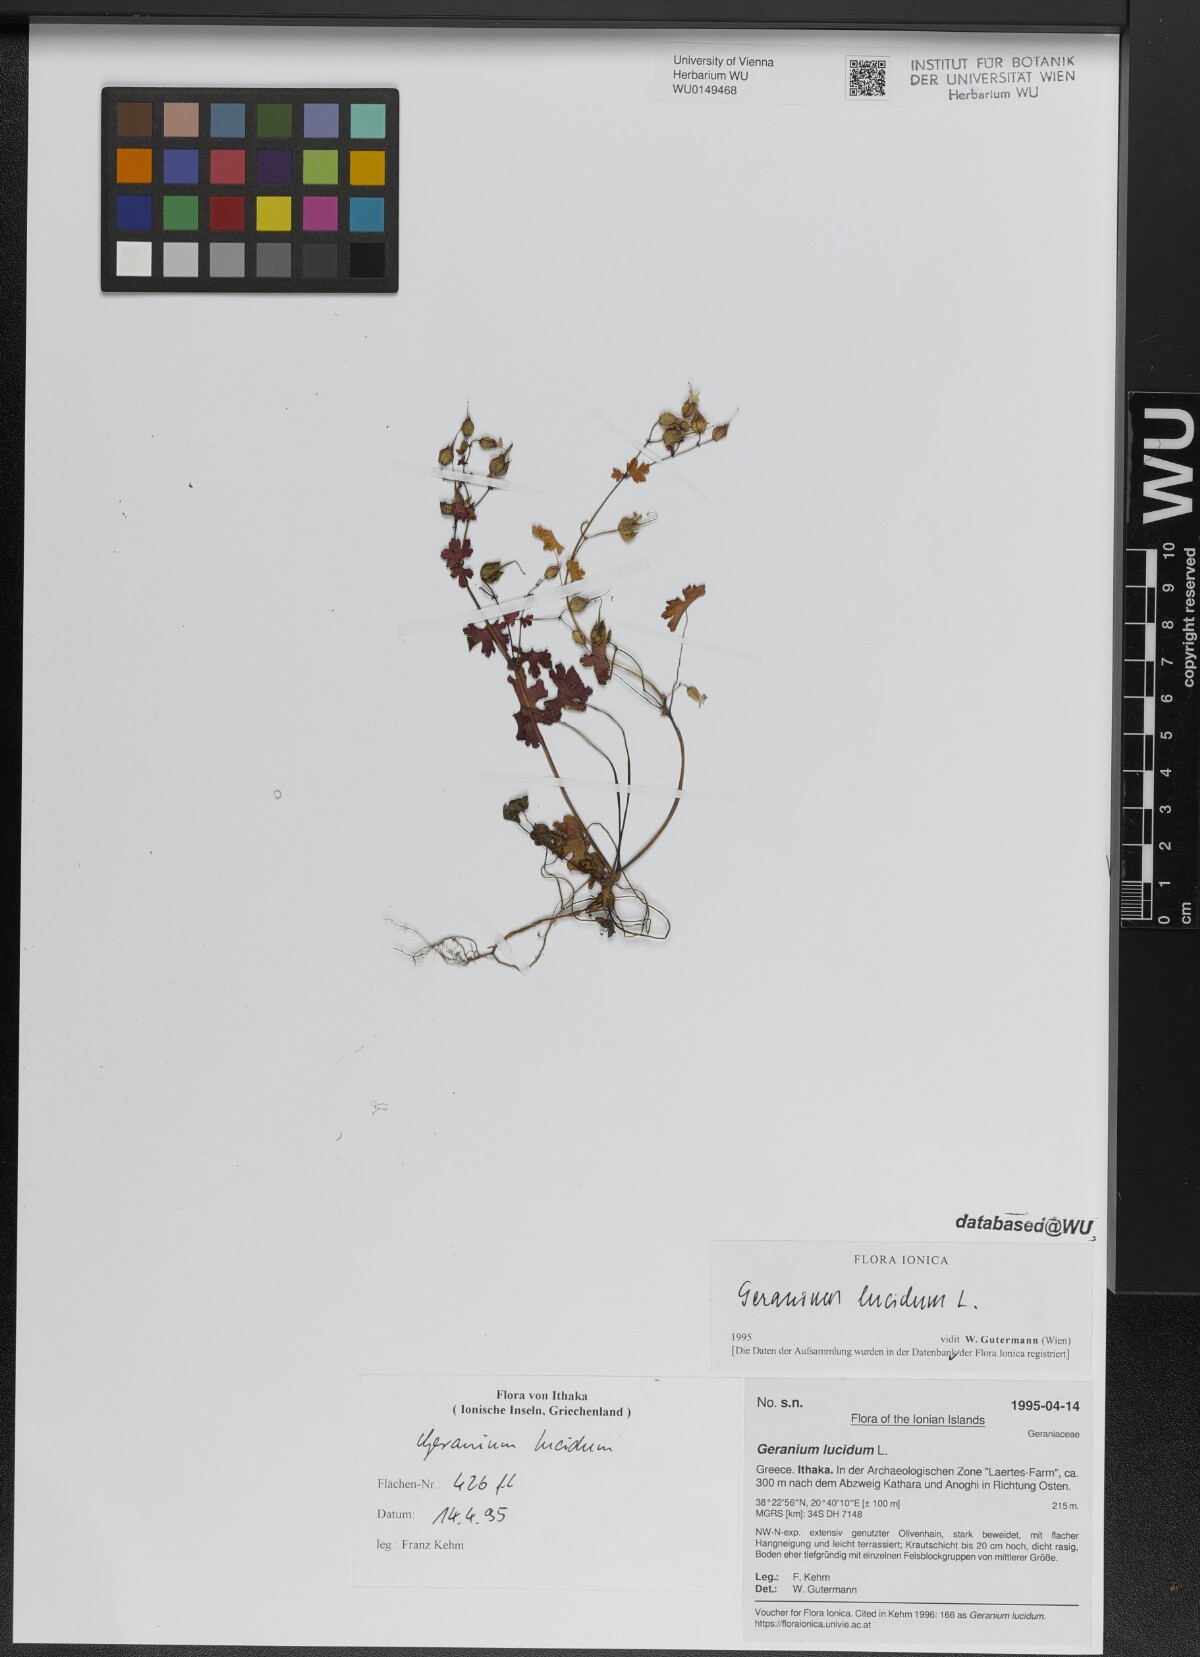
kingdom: Plantae
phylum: Tracheophyta
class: Magnoliopsida
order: Geraniales
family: Geraniaceae
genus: Geranium
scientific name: Geranium lucidum
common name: Shining crane's-bill
